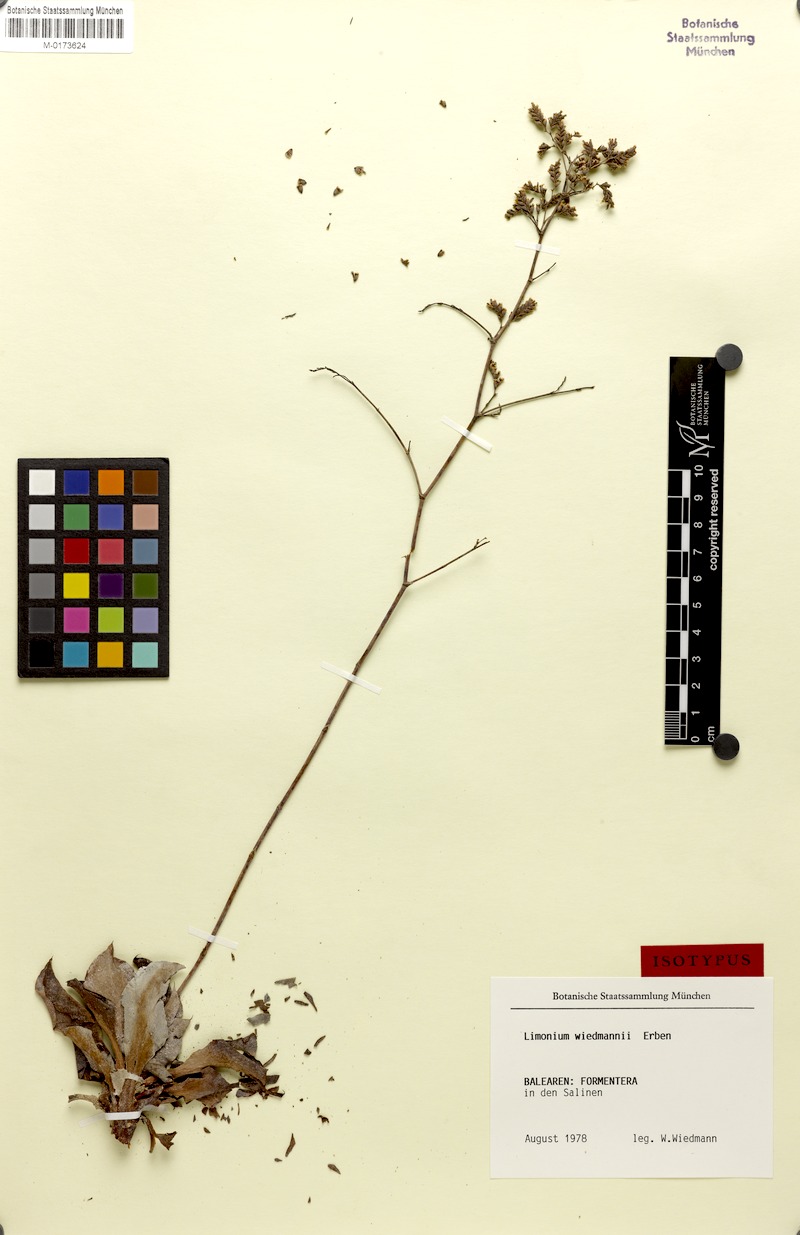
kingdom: Plantae
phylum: Tracheophyta
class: Magnoliopsida
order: Caryophyllales
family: Plumbaginaceae
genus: Limonium
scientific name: Limonium wiedmannii
